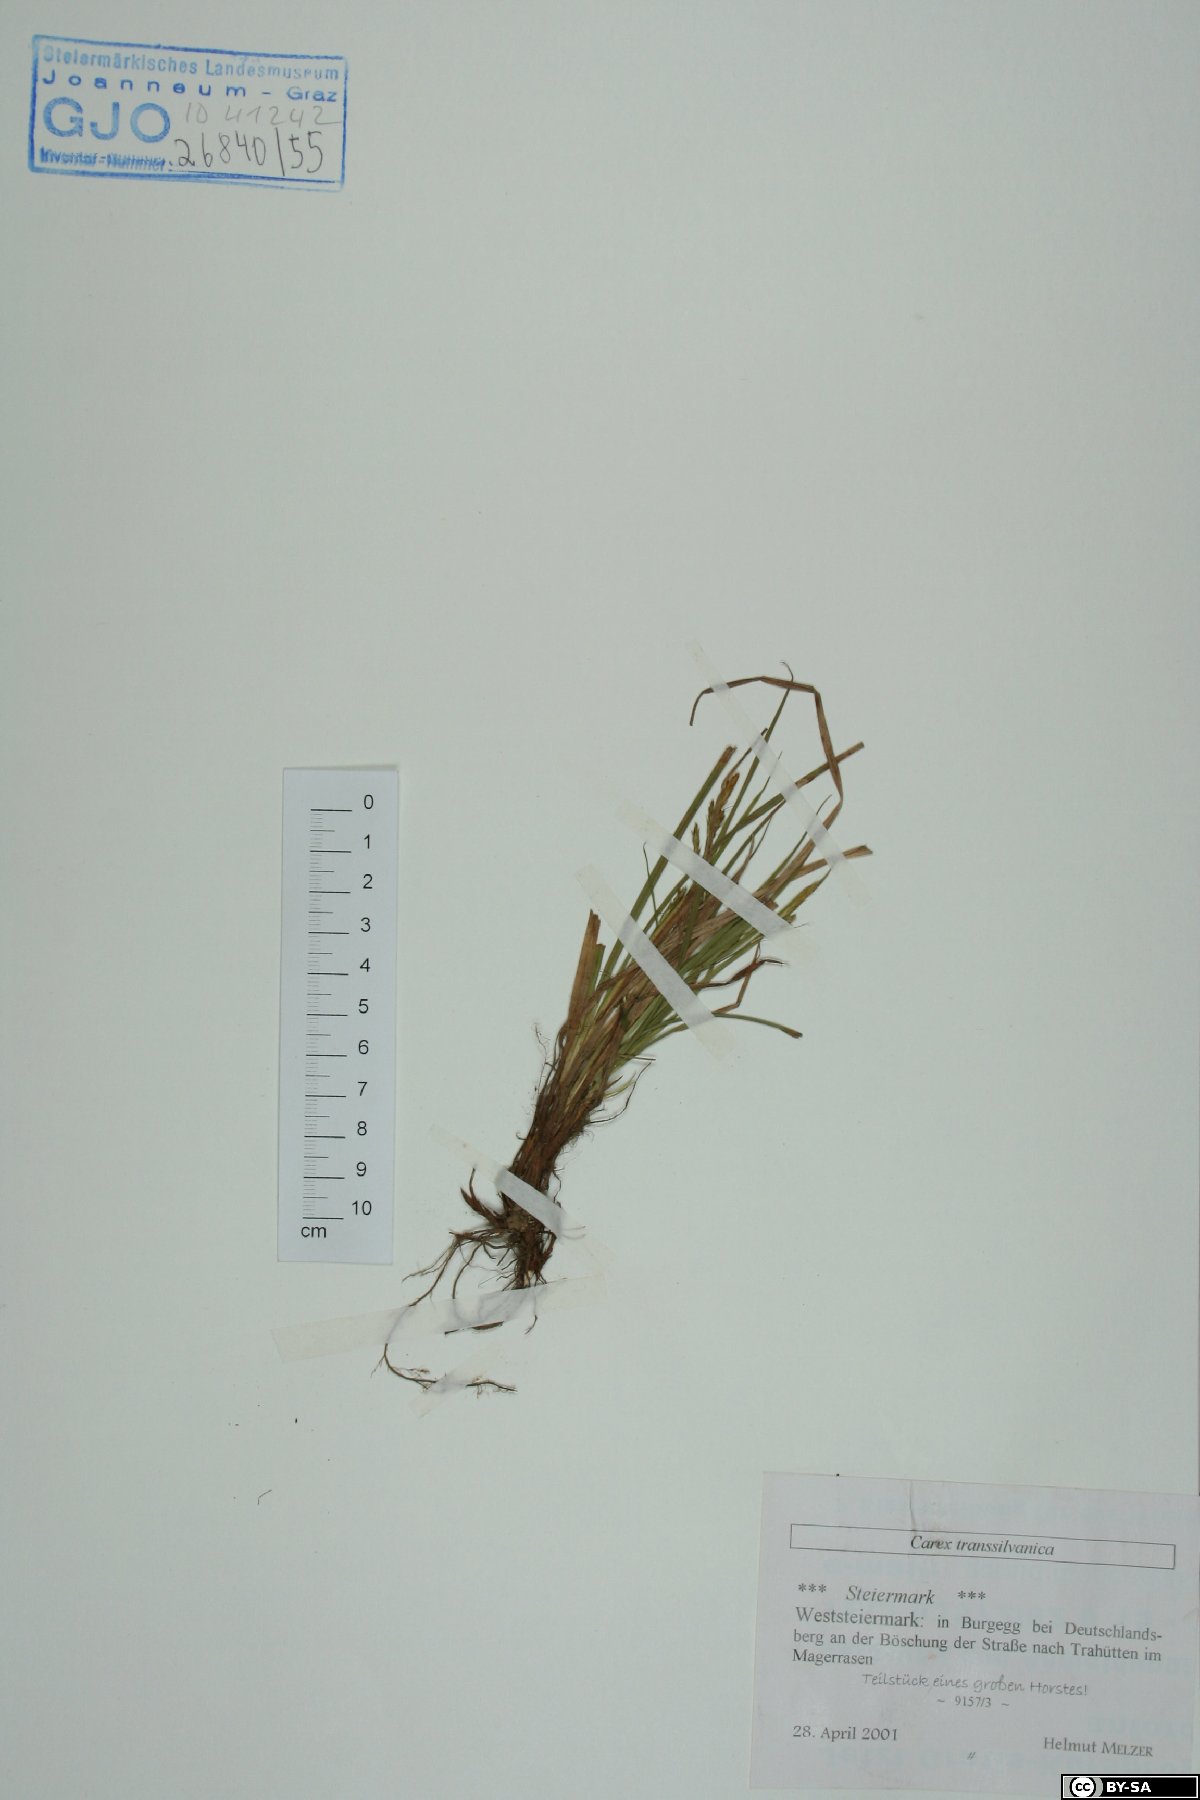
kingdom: Plantae
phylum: Tracheophyta
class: Liliopsida
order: Poales
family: Cyperaceae
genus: Carex
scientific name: Carex depressa
